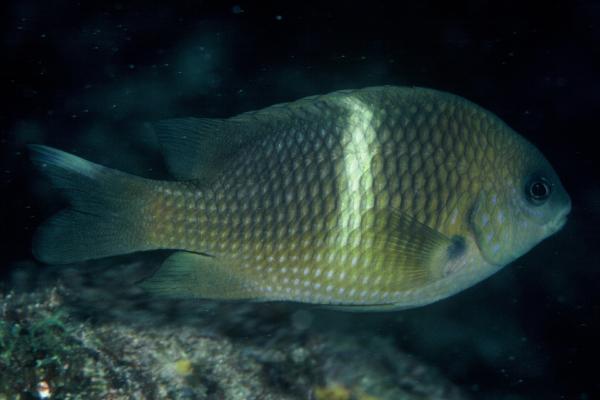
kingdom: Animalia
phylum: Chordata
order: Perciformes
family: Pomacentridae
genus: Plectroglyphidodon
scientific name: Plectroglyphidodon leucozonus
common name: White-band damsel
